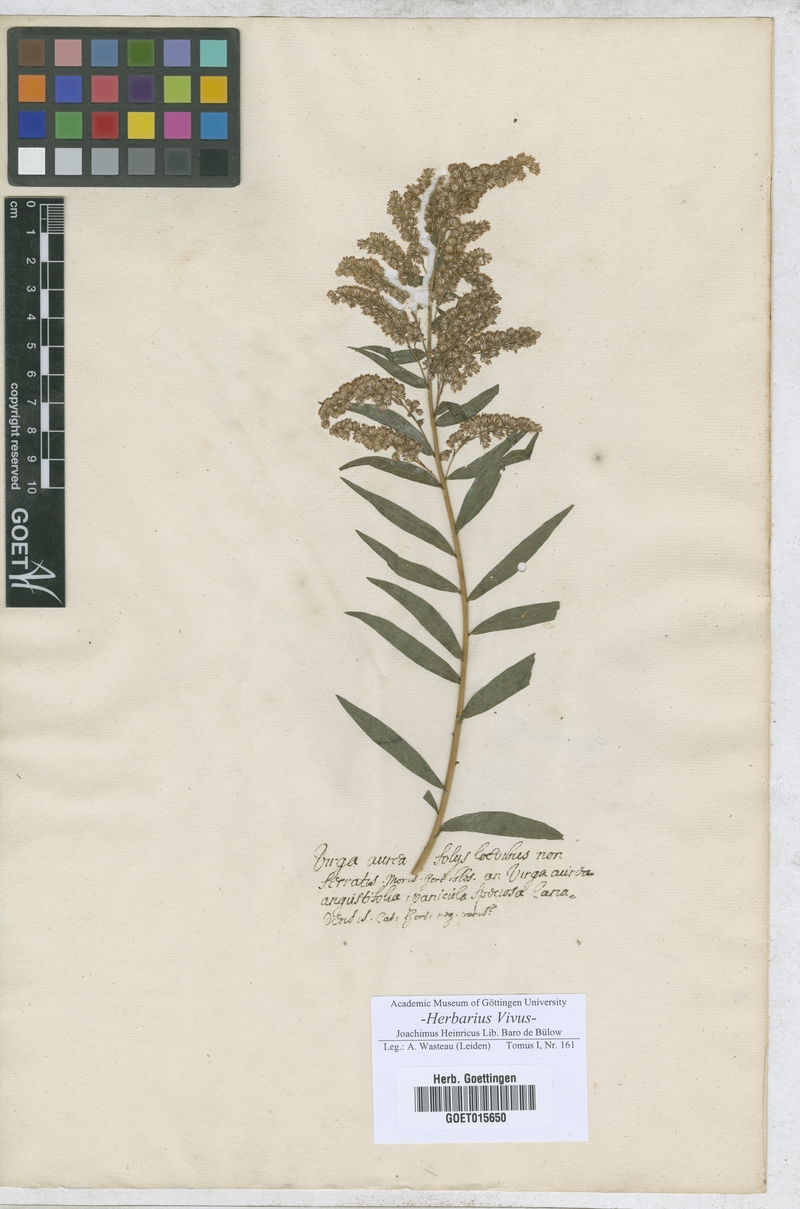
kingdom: Animalia
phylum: Arthropoda
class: Insecta
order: Lepidoptera
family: Hesperiidae
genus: Virga
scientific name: Virga
